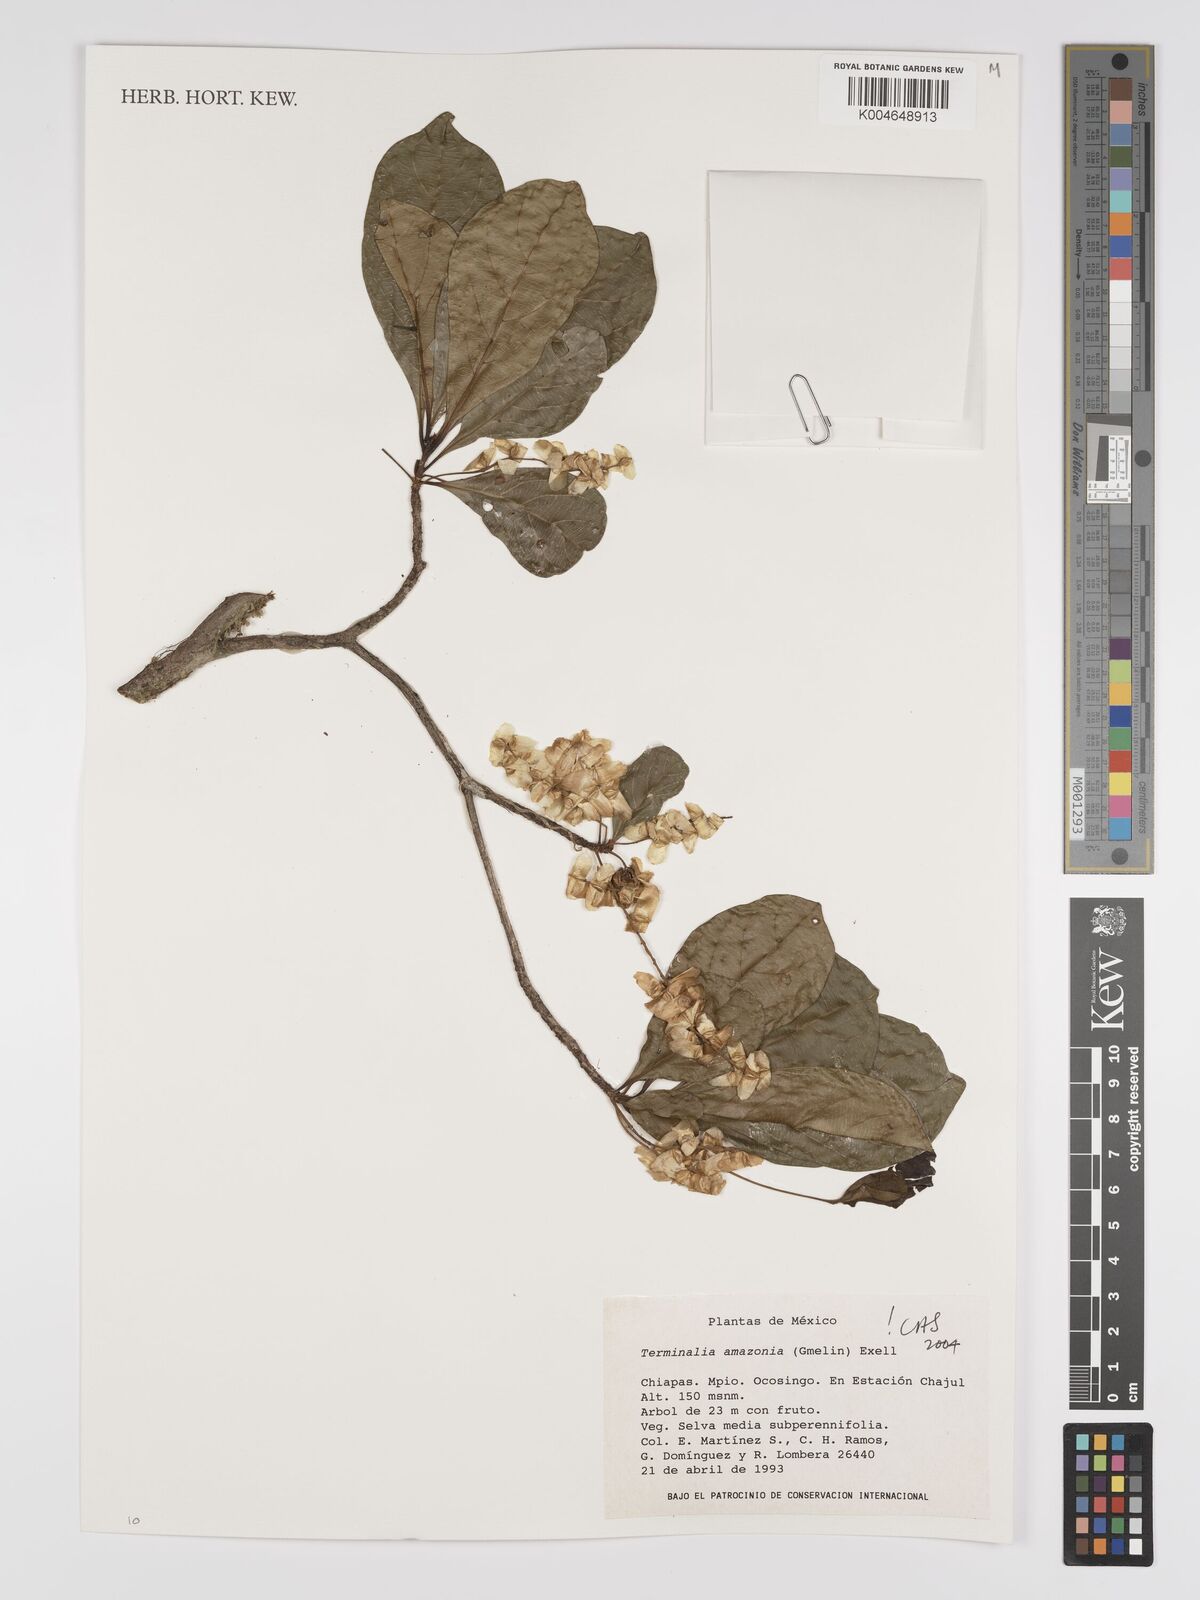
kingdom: Plantae
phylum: Tracheophyta
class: Magnoliopsida
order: Myrtales
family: Combretaceae
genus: Terminalia
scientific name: Terminalia amazonica
